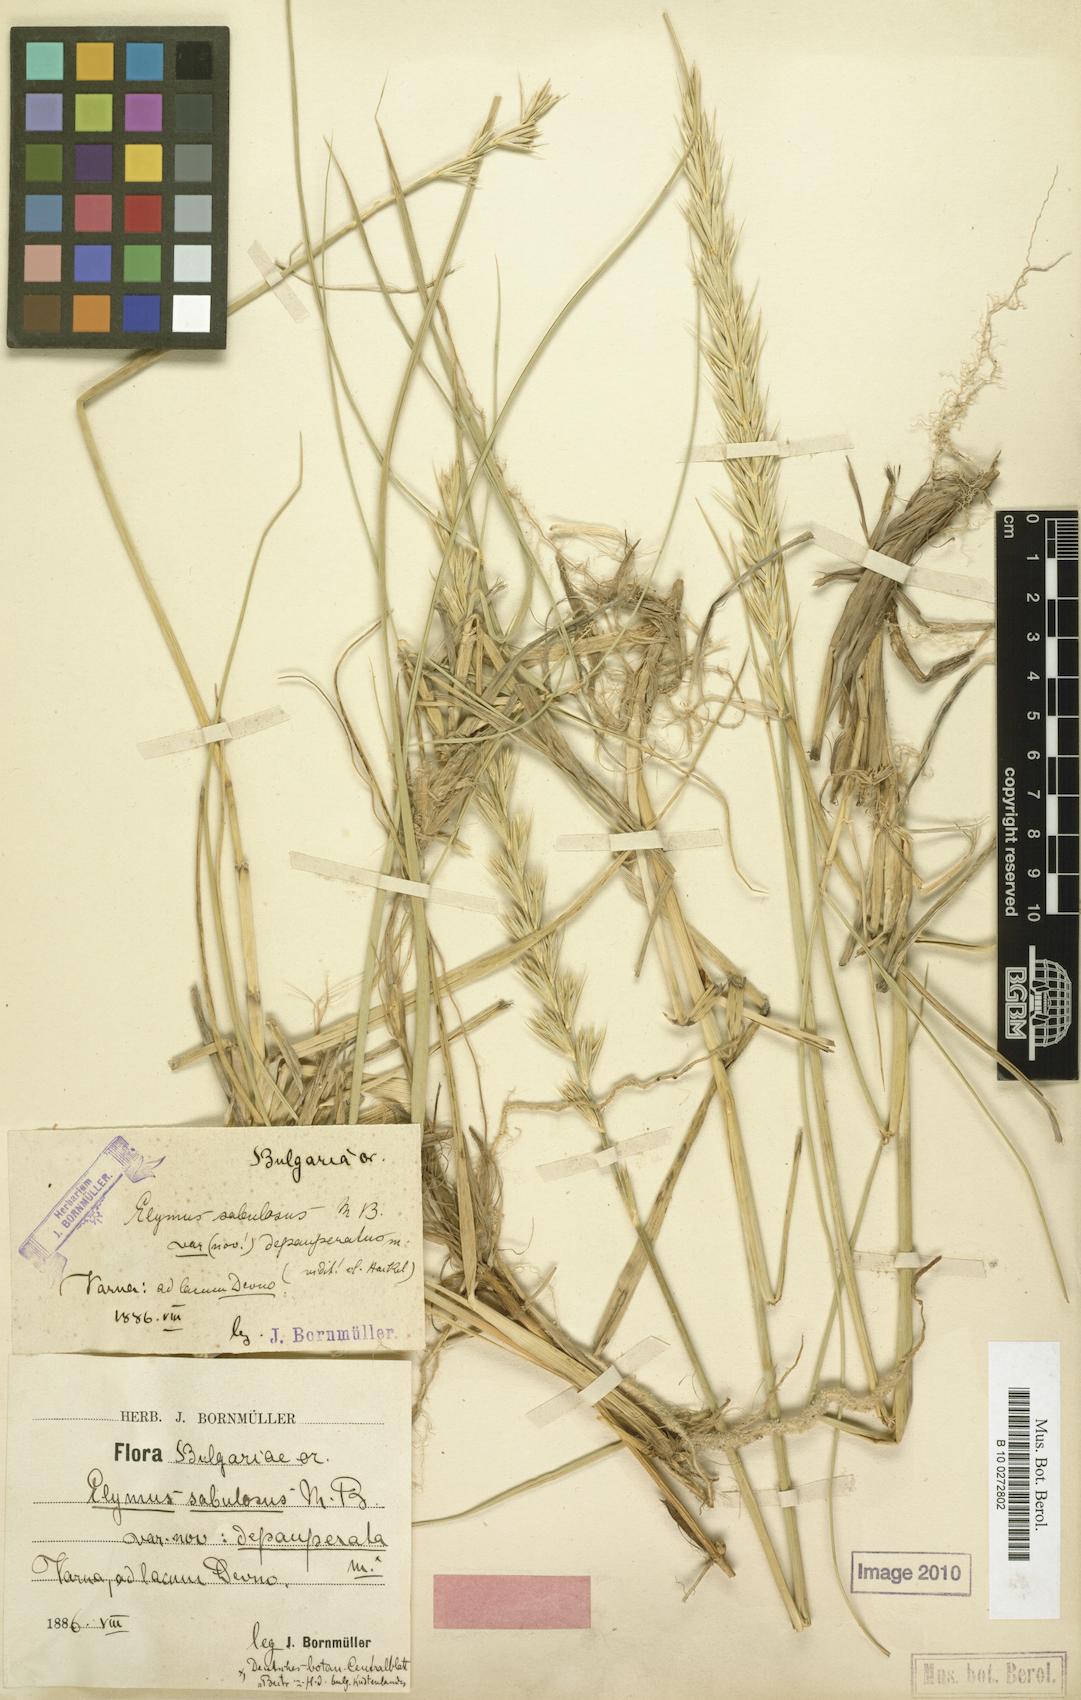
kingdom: Plantae
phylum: Tracheophyta
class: Liliopsida
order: Poales
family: Poaceae
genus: Leymus
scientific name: Leymus racemosus
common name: Mammoth wildrye
